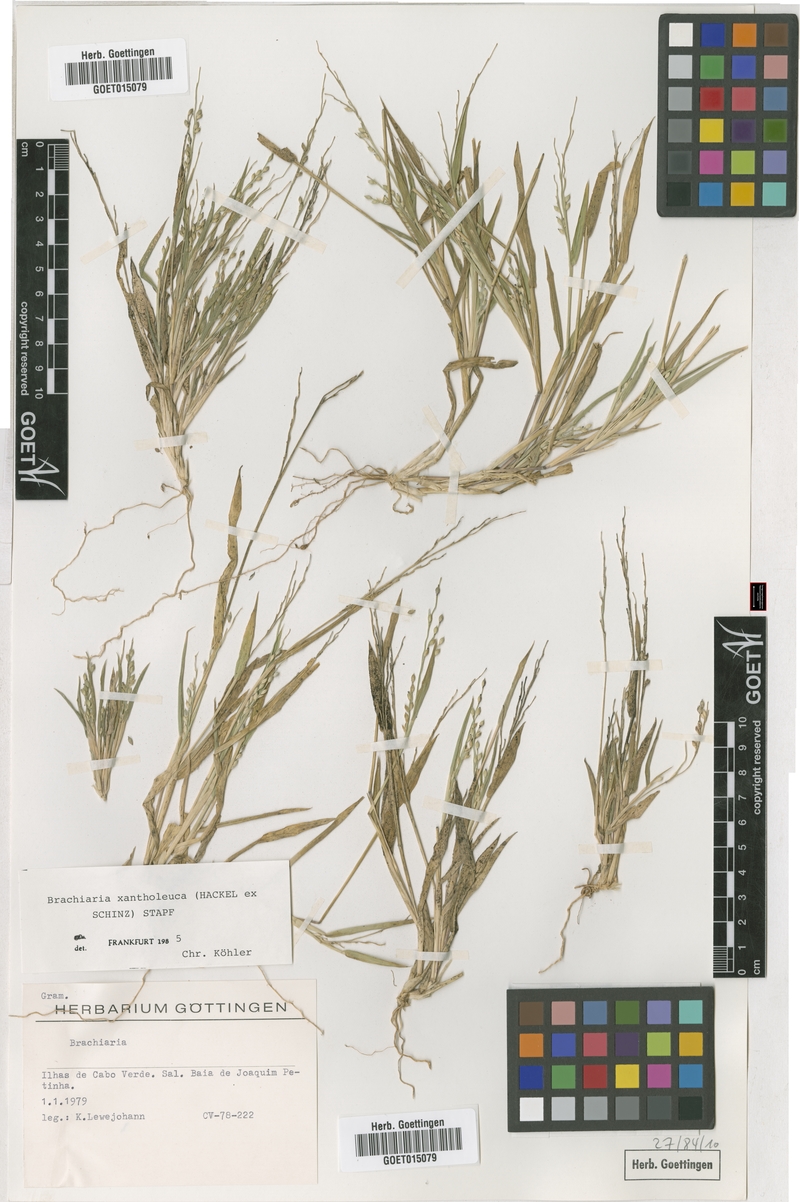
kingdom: Plantae
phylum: Tracheophyta
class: Liliopsida
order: Poales
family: Poaceae
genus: Urochloa
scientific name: Urochloa xantholeuca
